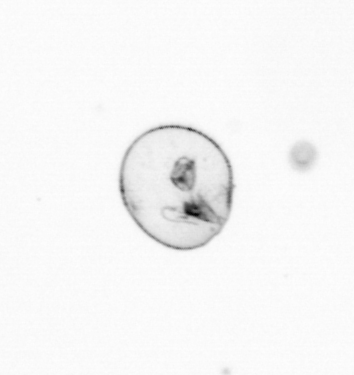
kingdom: Chromista
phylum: Myzozoa
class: Dinophyceae
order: Noctilucales
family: Noctilucaceae
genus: Noctiluca
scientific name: Noctiluca scintillans
